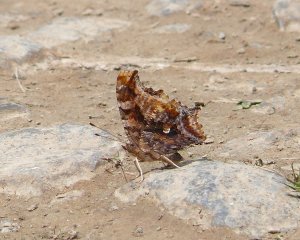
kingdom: Animalia
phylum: Arthropoda
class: Insecta
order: Lepidoptera
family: Nymphalidae
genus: Polygonia
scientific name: Polygonia comma
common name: Eastern Comma
